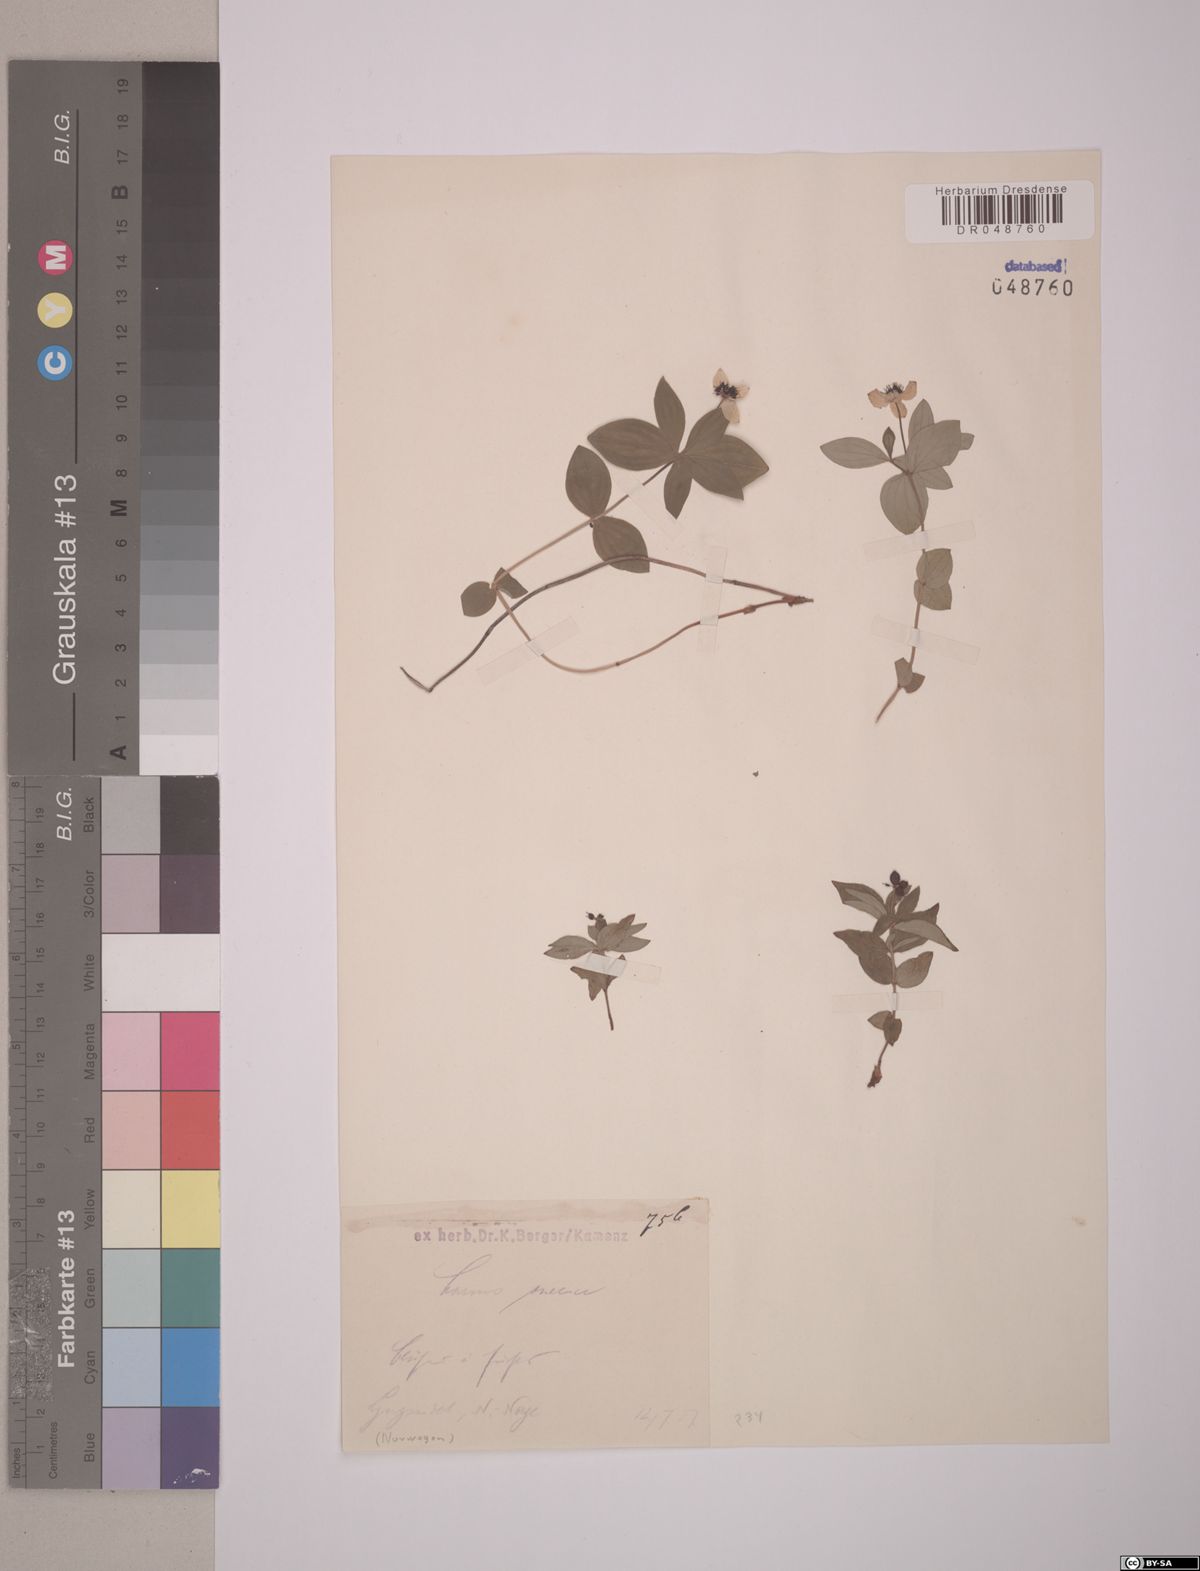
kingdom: Plantae
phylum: Tracheophyta
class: Magnoliopsida
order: Cornales
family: Cornaceae
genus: Cornus
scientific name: Cornus suecica
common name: Dwarf cornel
